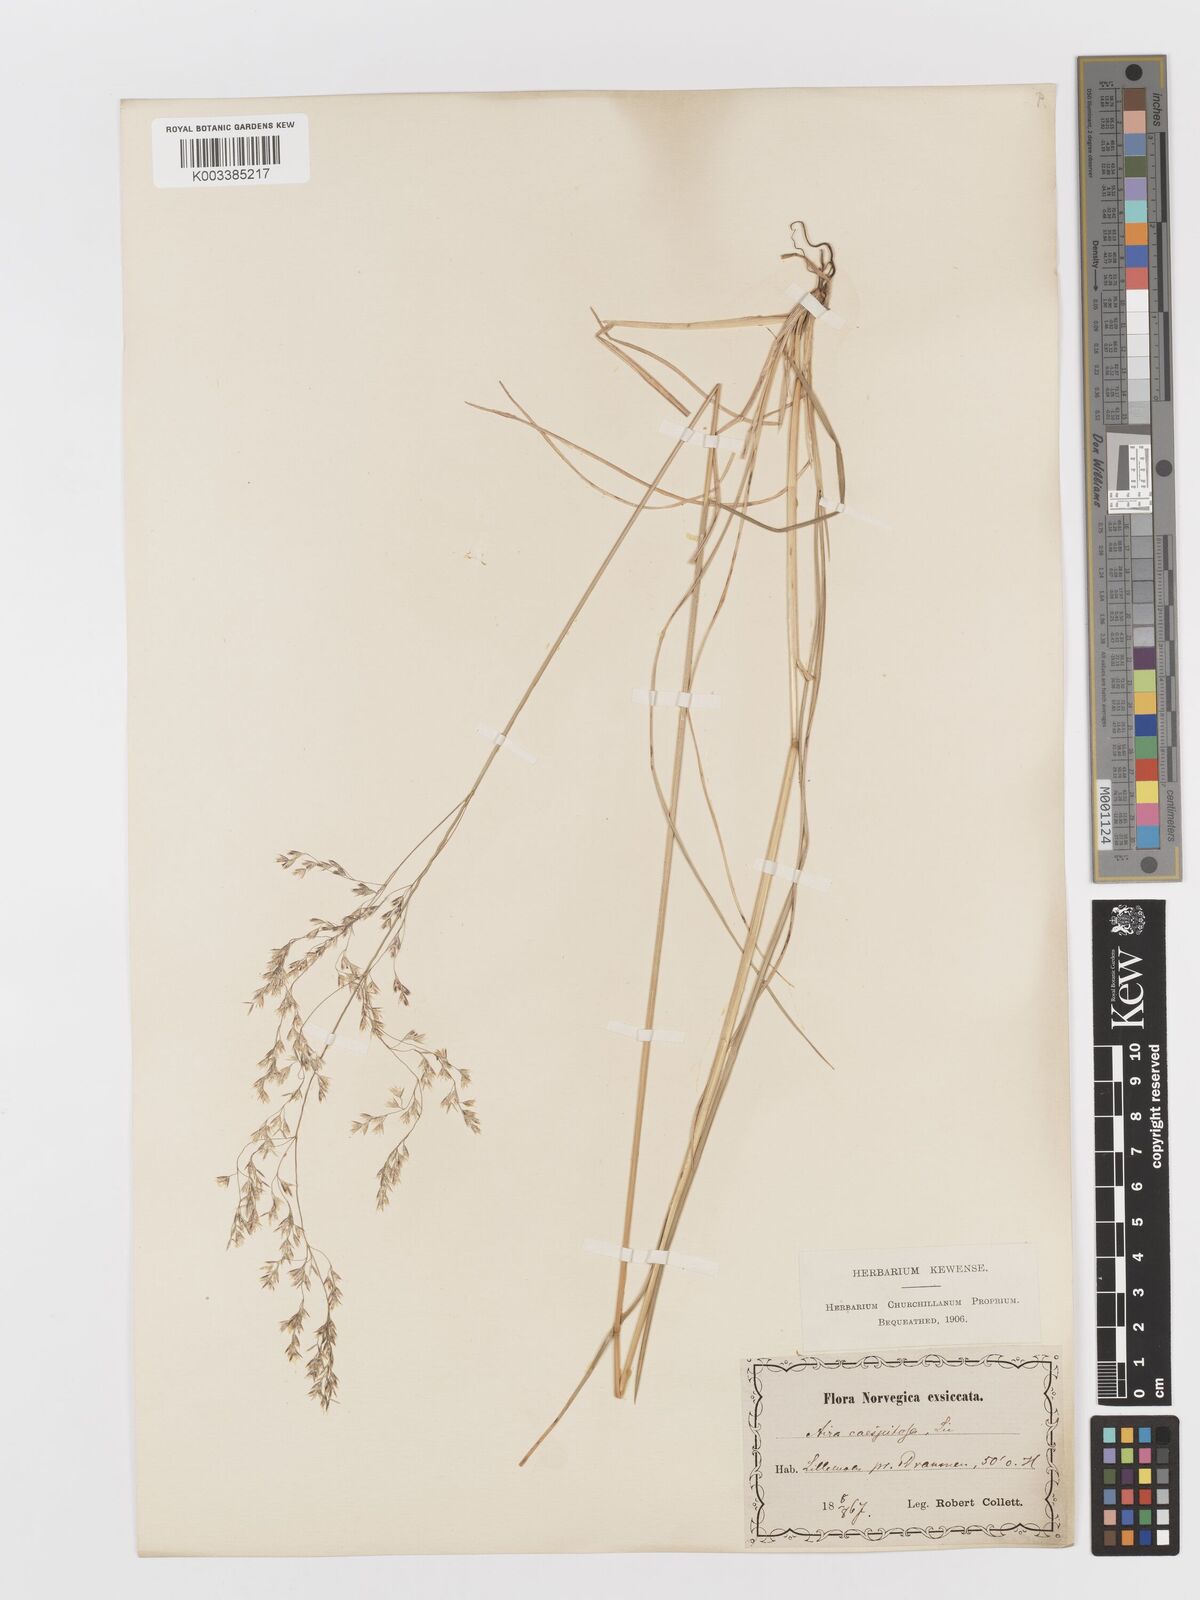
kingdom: Plantae
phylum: Tracheophyta
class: Liliopsida
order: Poales
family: Poaceae
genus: Deschampsia
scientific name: Deschampsia cespitosa
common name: Tufted hair-grass
